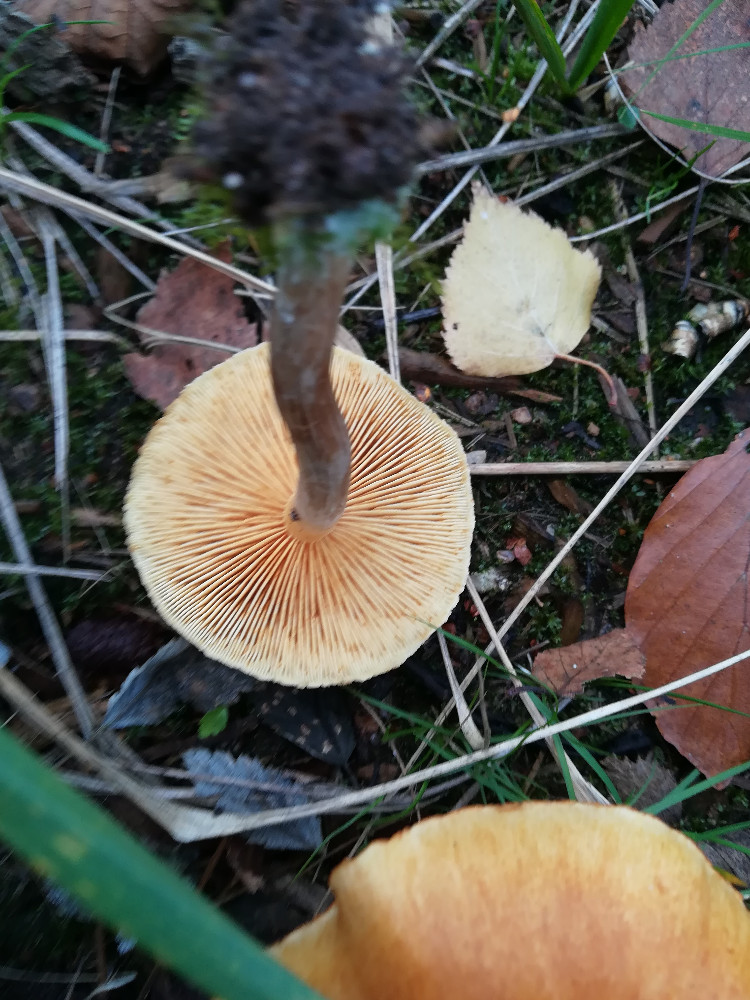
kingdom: Fungi
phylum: Basidiomycota
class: Agaricomycetes
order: Agaricales
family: Hymenogastraceae
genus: Gymnopilus
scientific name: Gymnopilus penetrans
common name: plettet flammehat
